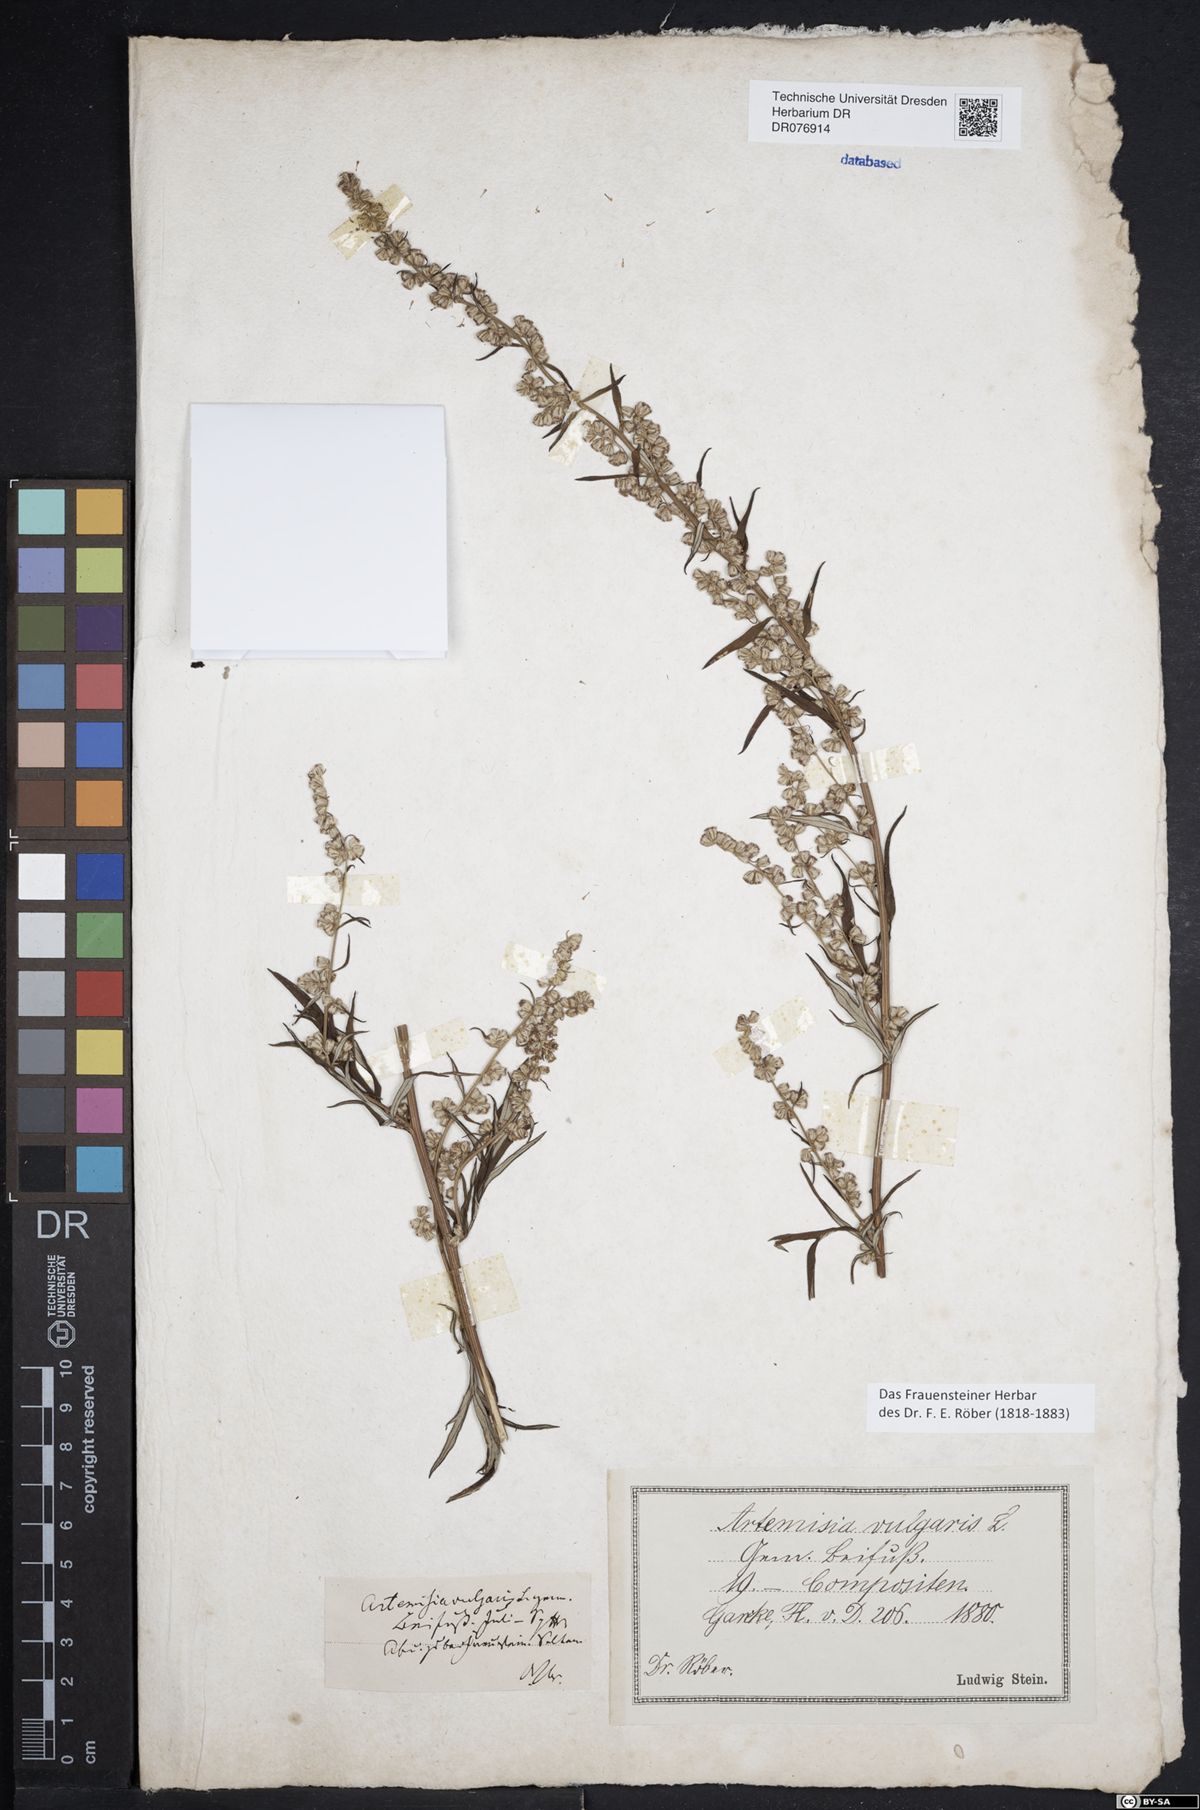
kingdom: Plantae
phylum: Tracheophyta
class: Magnoliopsida
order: Asterales
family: Asteraceae
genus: Artemisia
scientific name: Artemisia vulgaris
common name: Mugwort
